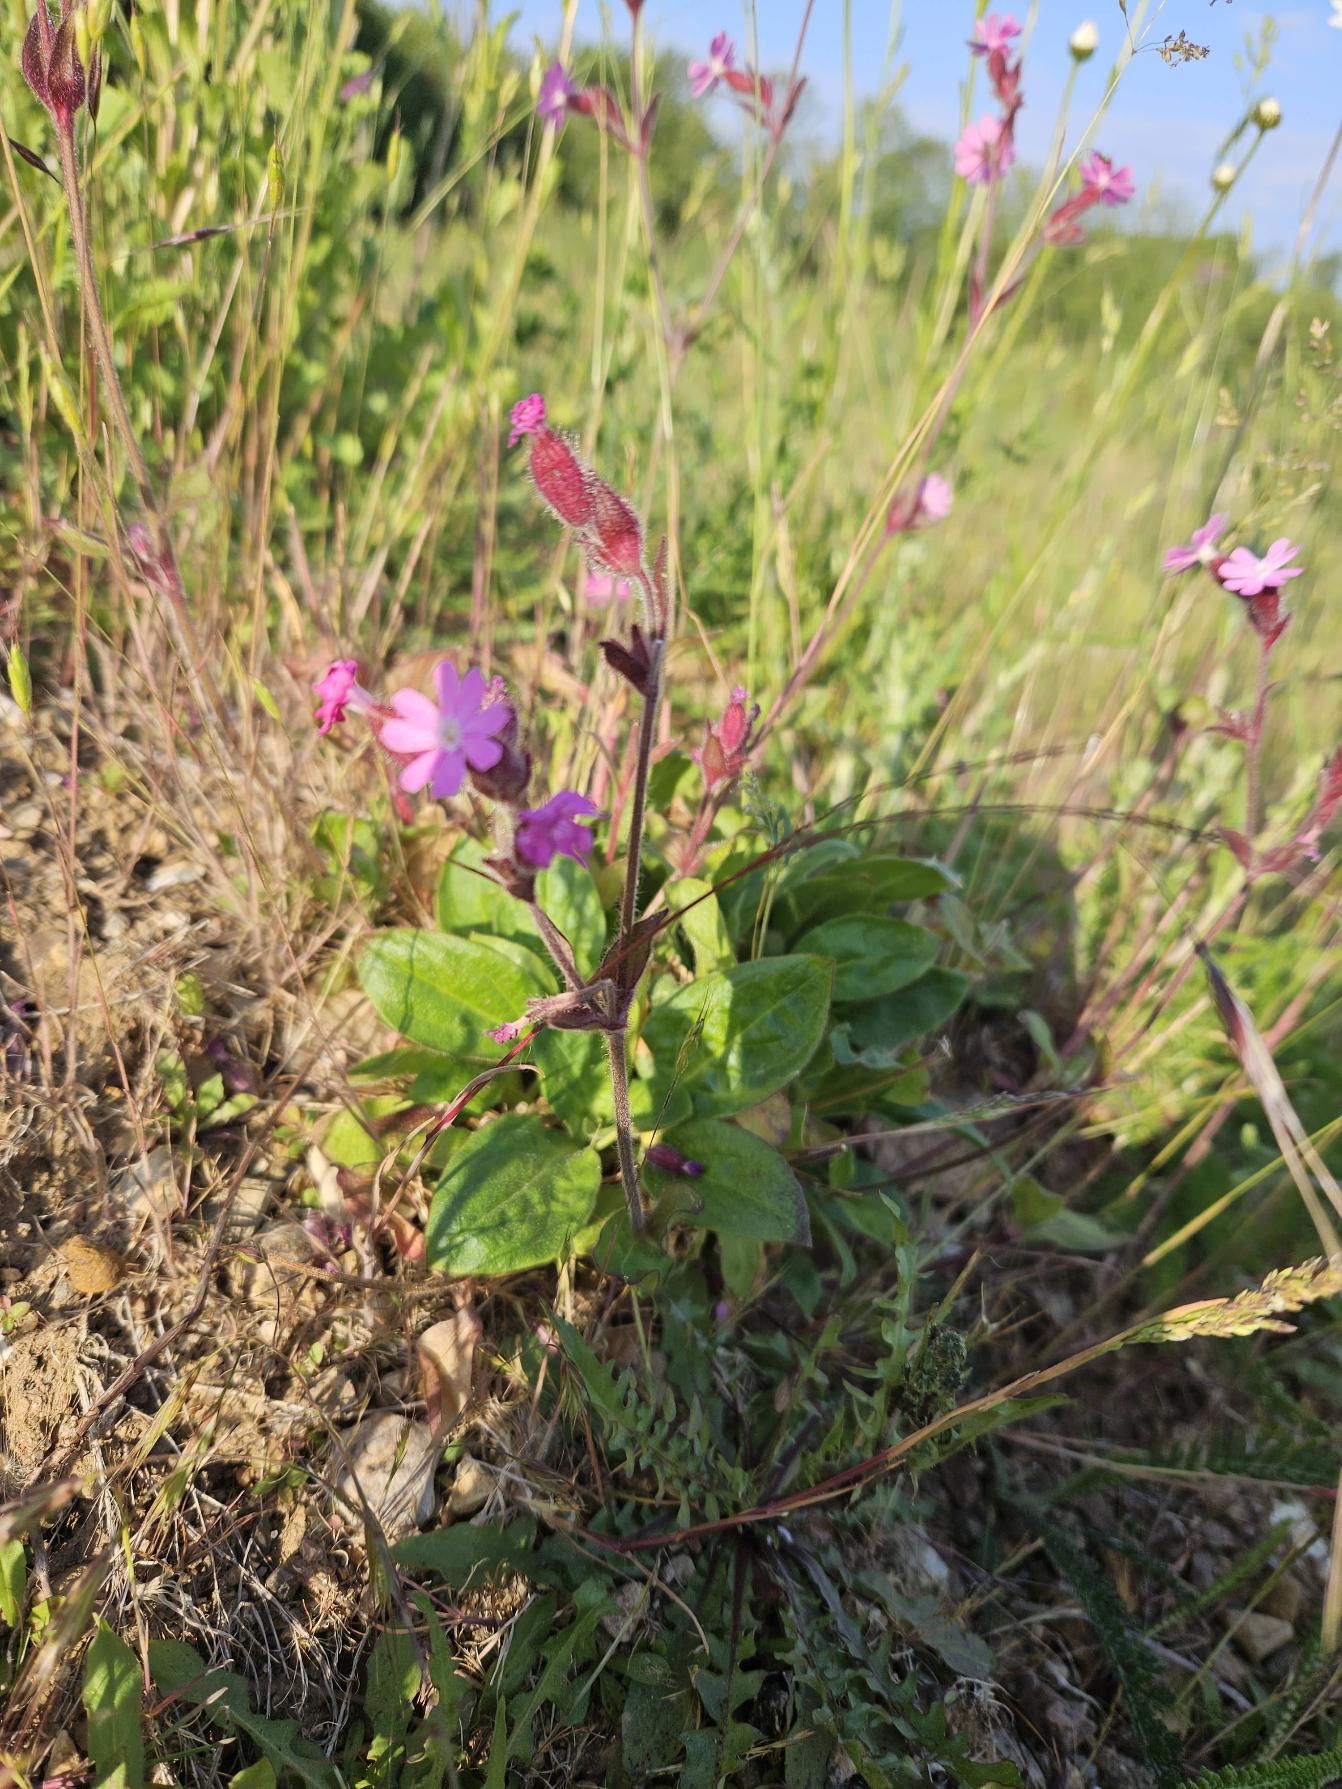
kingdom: Plantae
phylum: Tracheophyta
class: Magnoliopsida
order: Caryophyllales
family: Caryophyllaceae
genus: Silene
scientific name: Silene dioica
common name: Dagpragtstjerne
